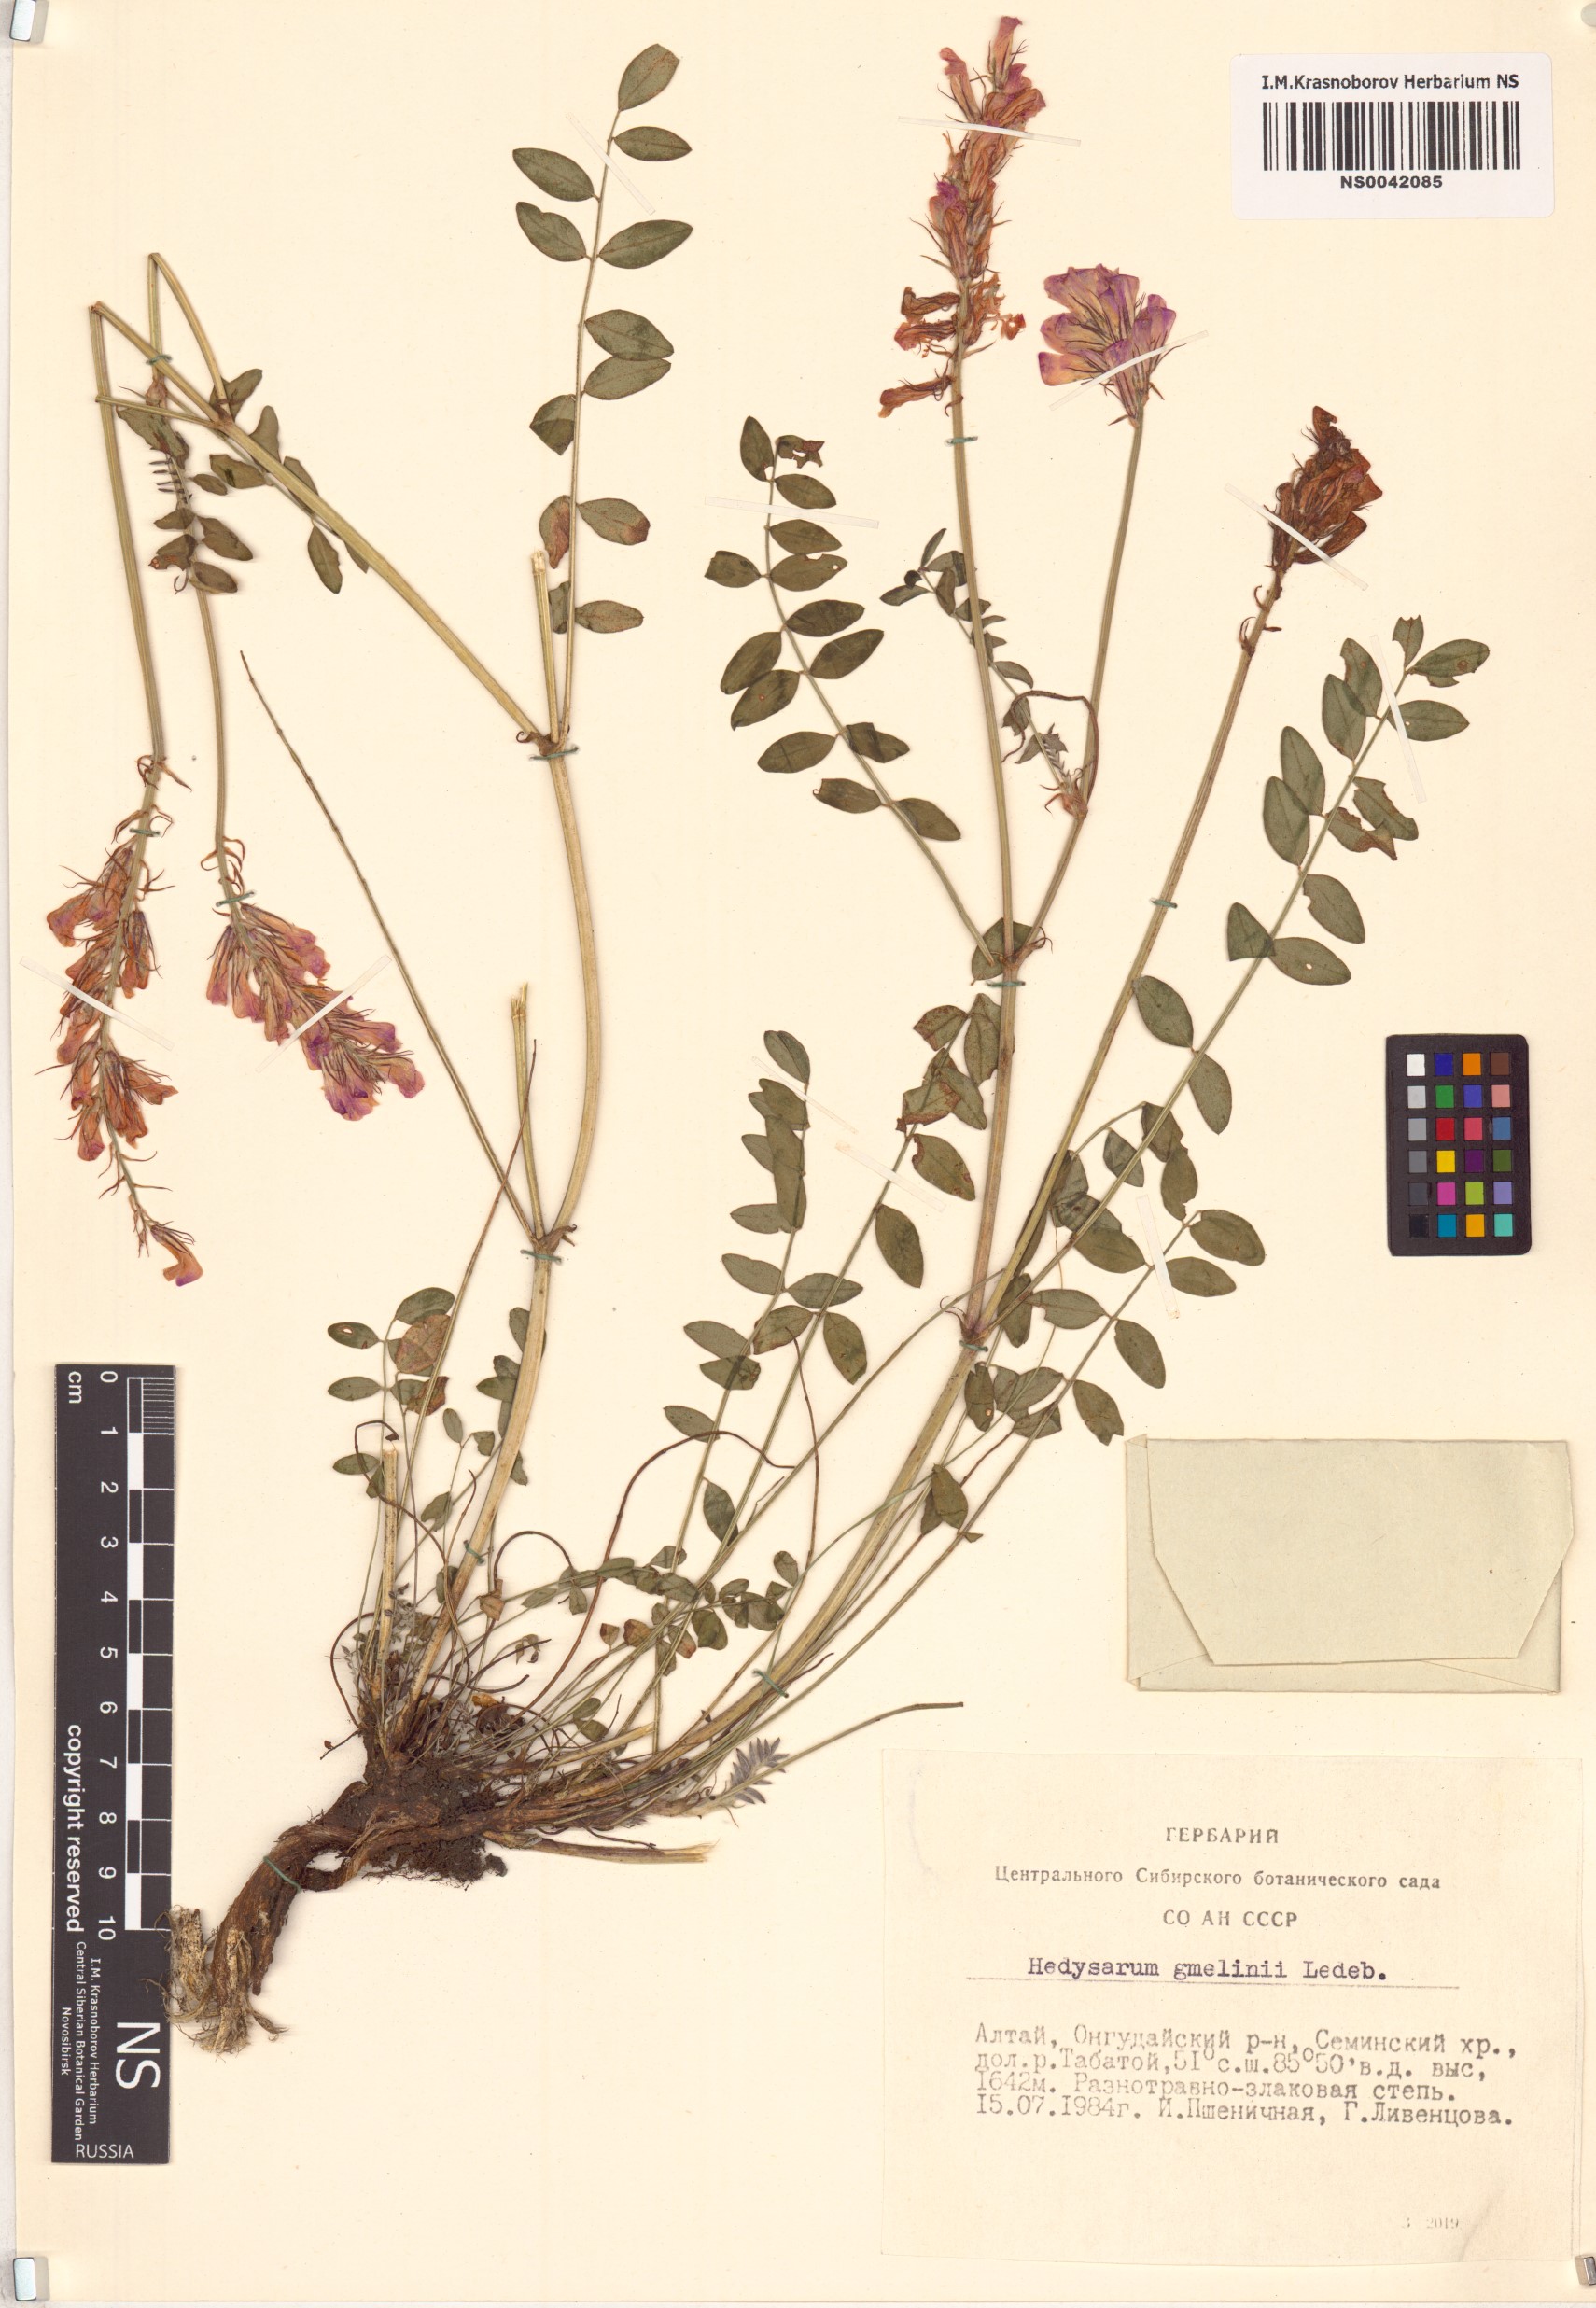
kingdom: Plantae
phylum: Tracheophyta
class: Magnoliopsida
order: Fabales
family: Fabaceae
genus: Hedysarum
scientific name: Hedysarum gmelinii
